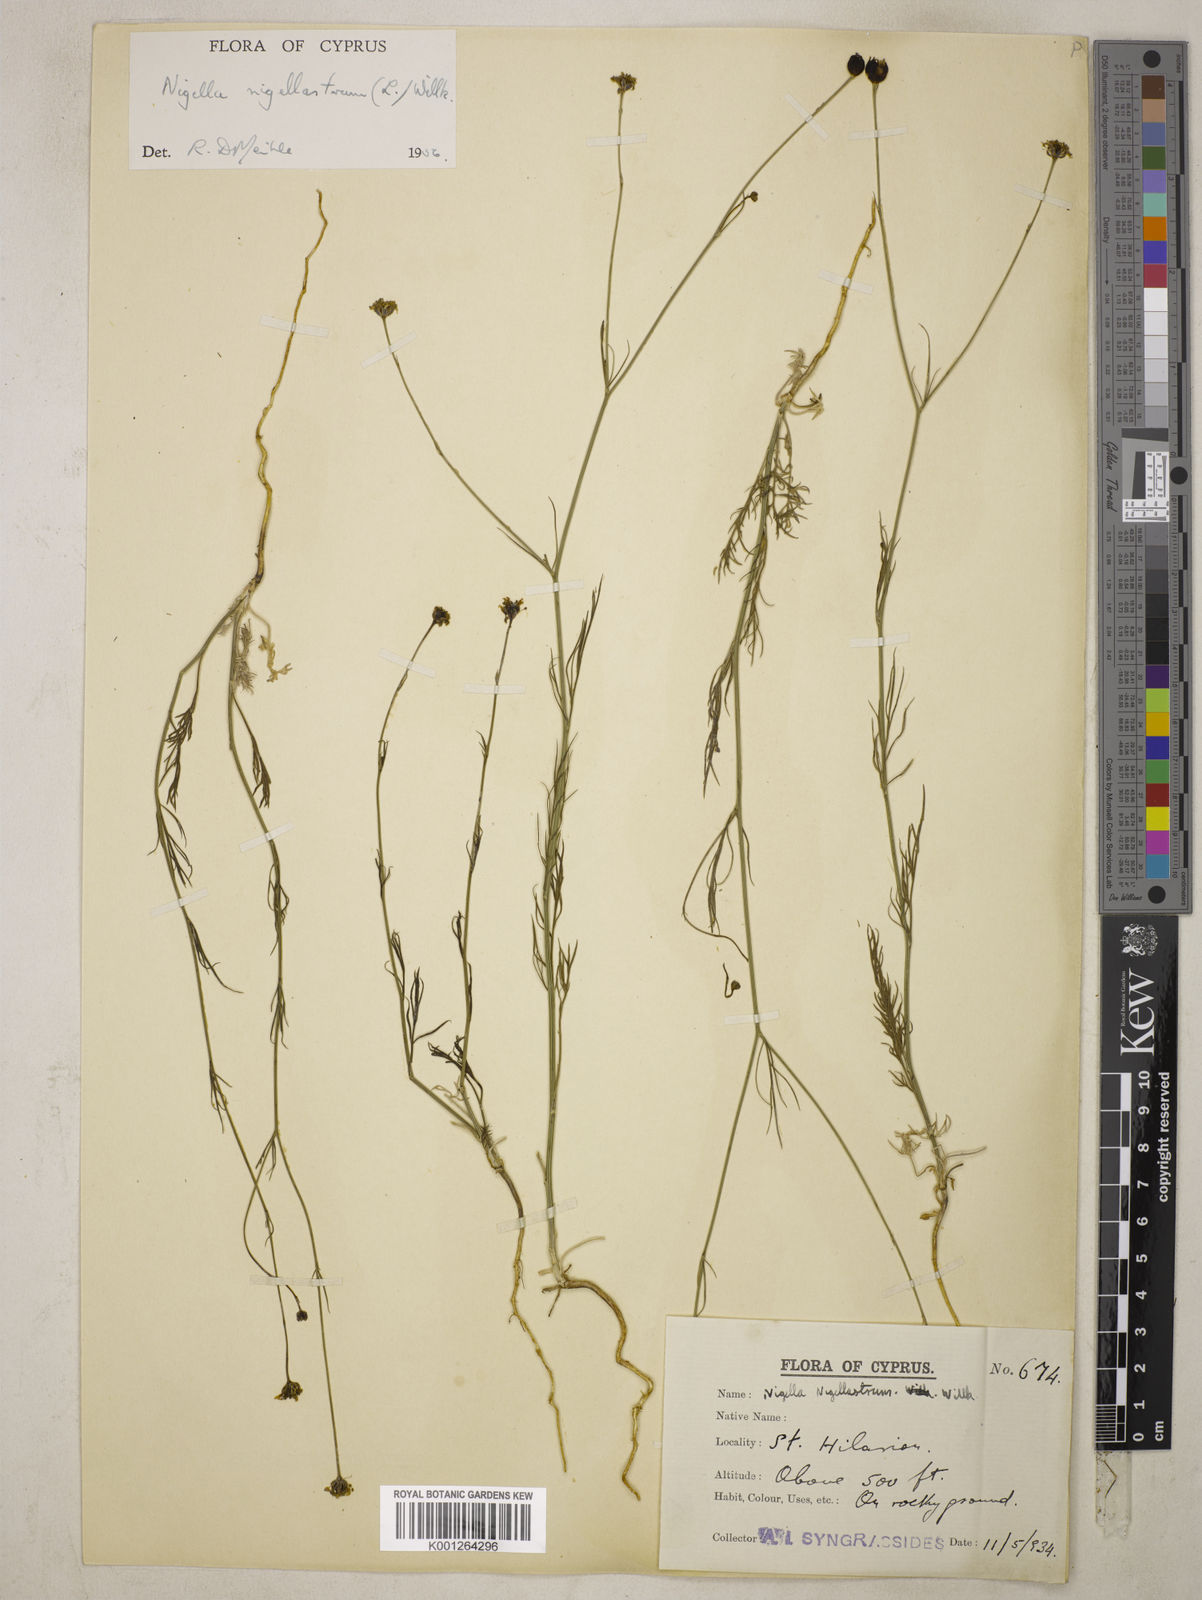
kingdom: Plantae
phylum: Tracheophyta
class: Magnoliopsida
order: Ranunculales
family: Ranunculaceae
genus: Garidella
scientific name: Garidella nigellastrum
